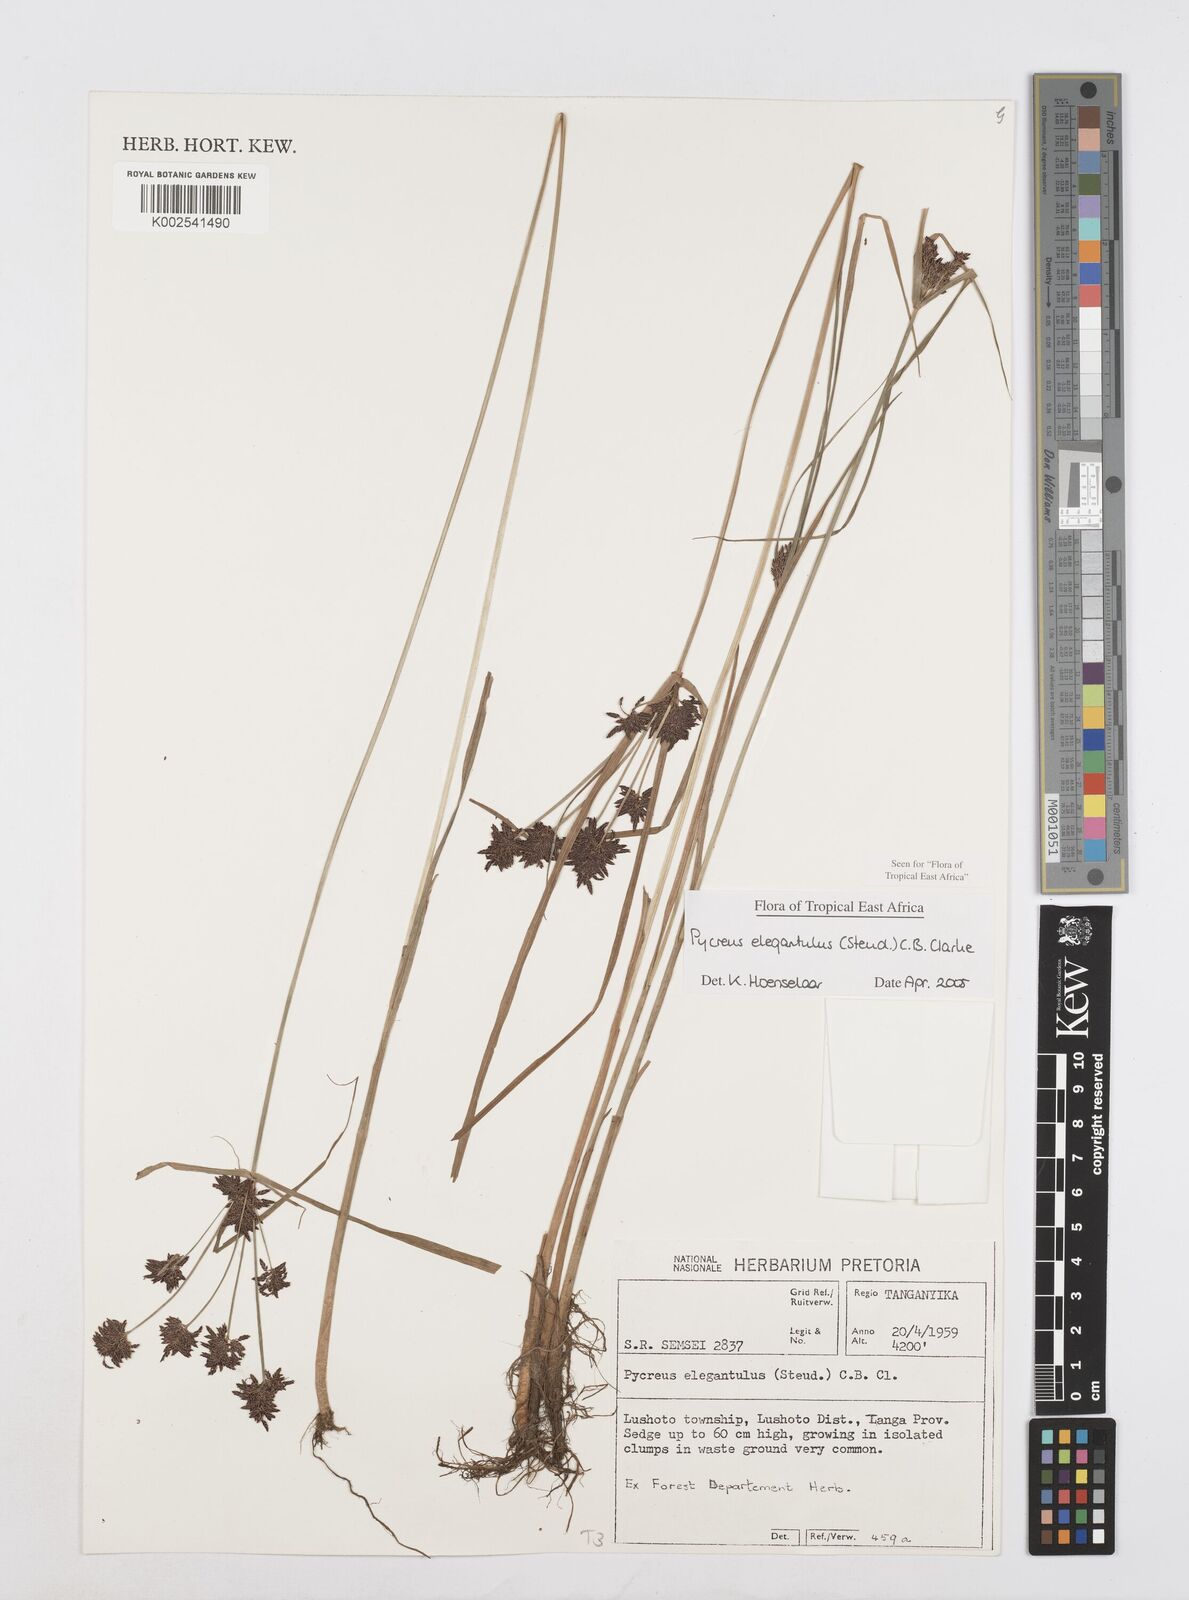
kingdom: Plantae
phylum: Tracheophyta
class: Liliopsida
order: Poales
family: Cyperaceae
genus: Cyperus
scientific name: Cyperus elegantulus
